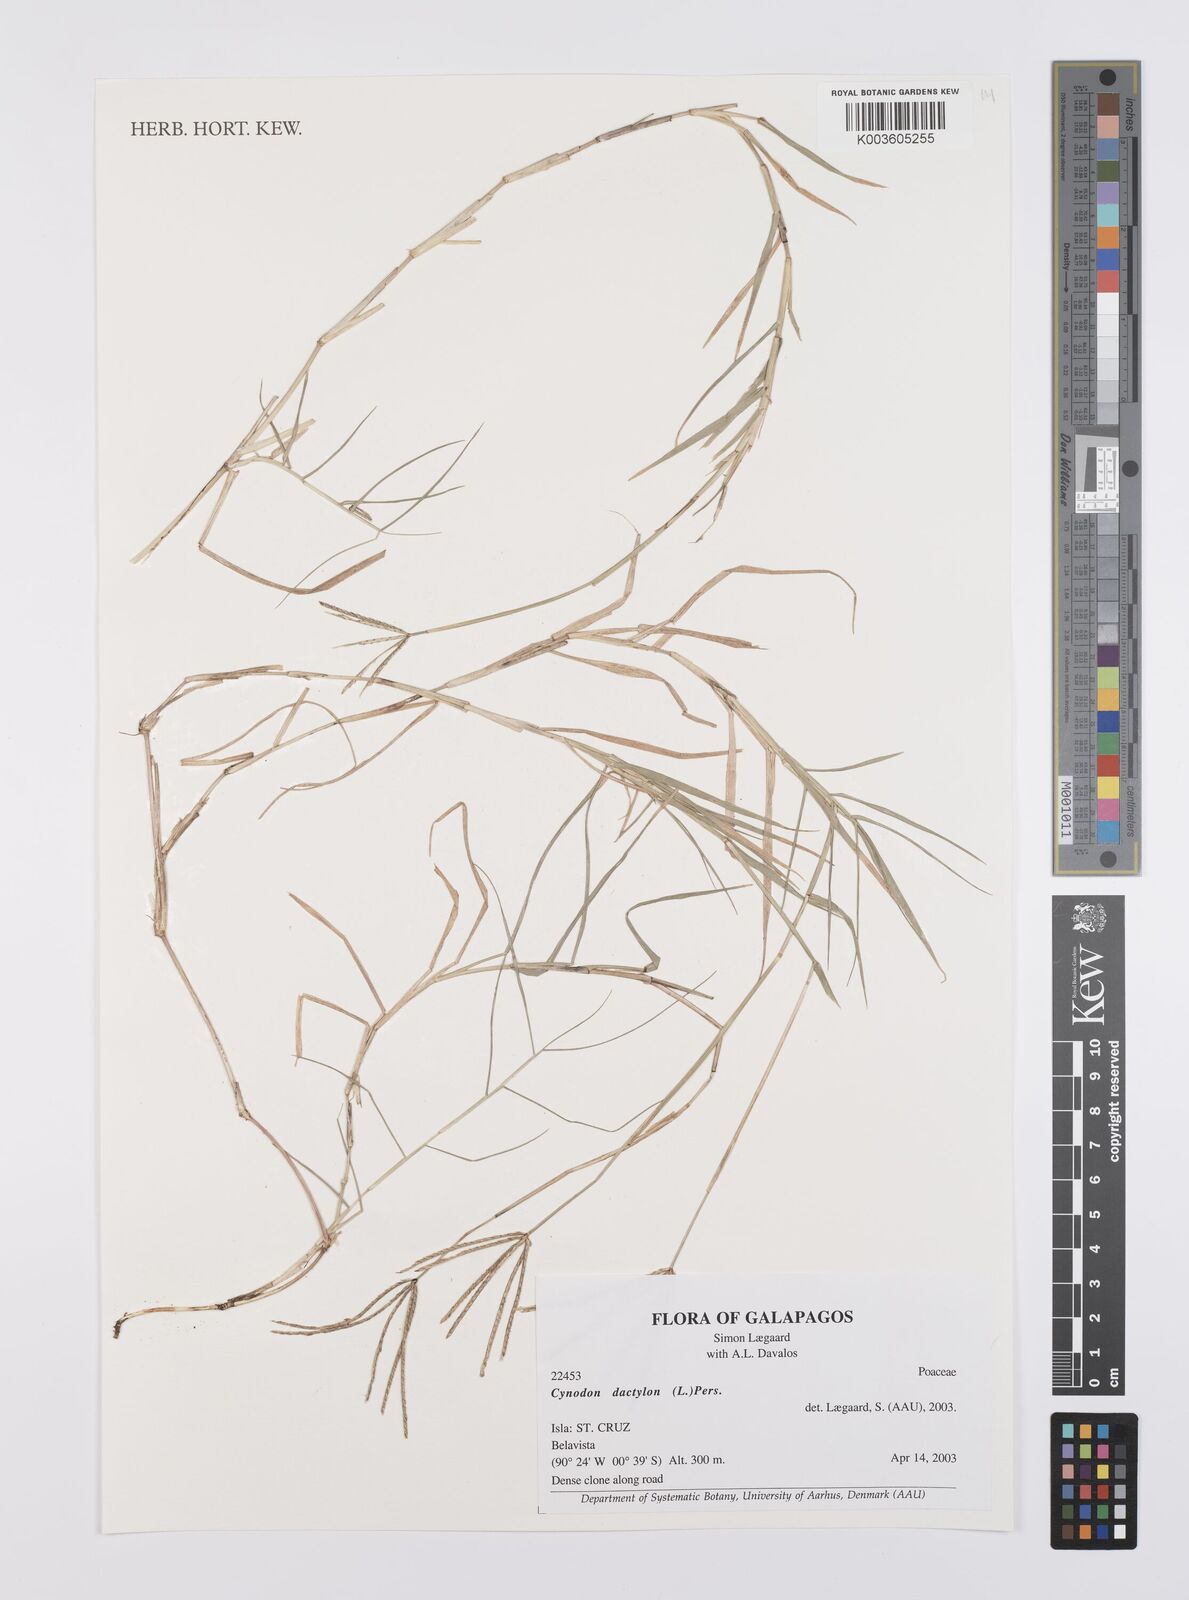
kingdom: Plantae
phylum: Tracheophyta
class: Liliopsida
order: Poales
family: Poaceae
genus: Cynodon
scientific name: Cynodon dactylon
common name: Bermuda grass
